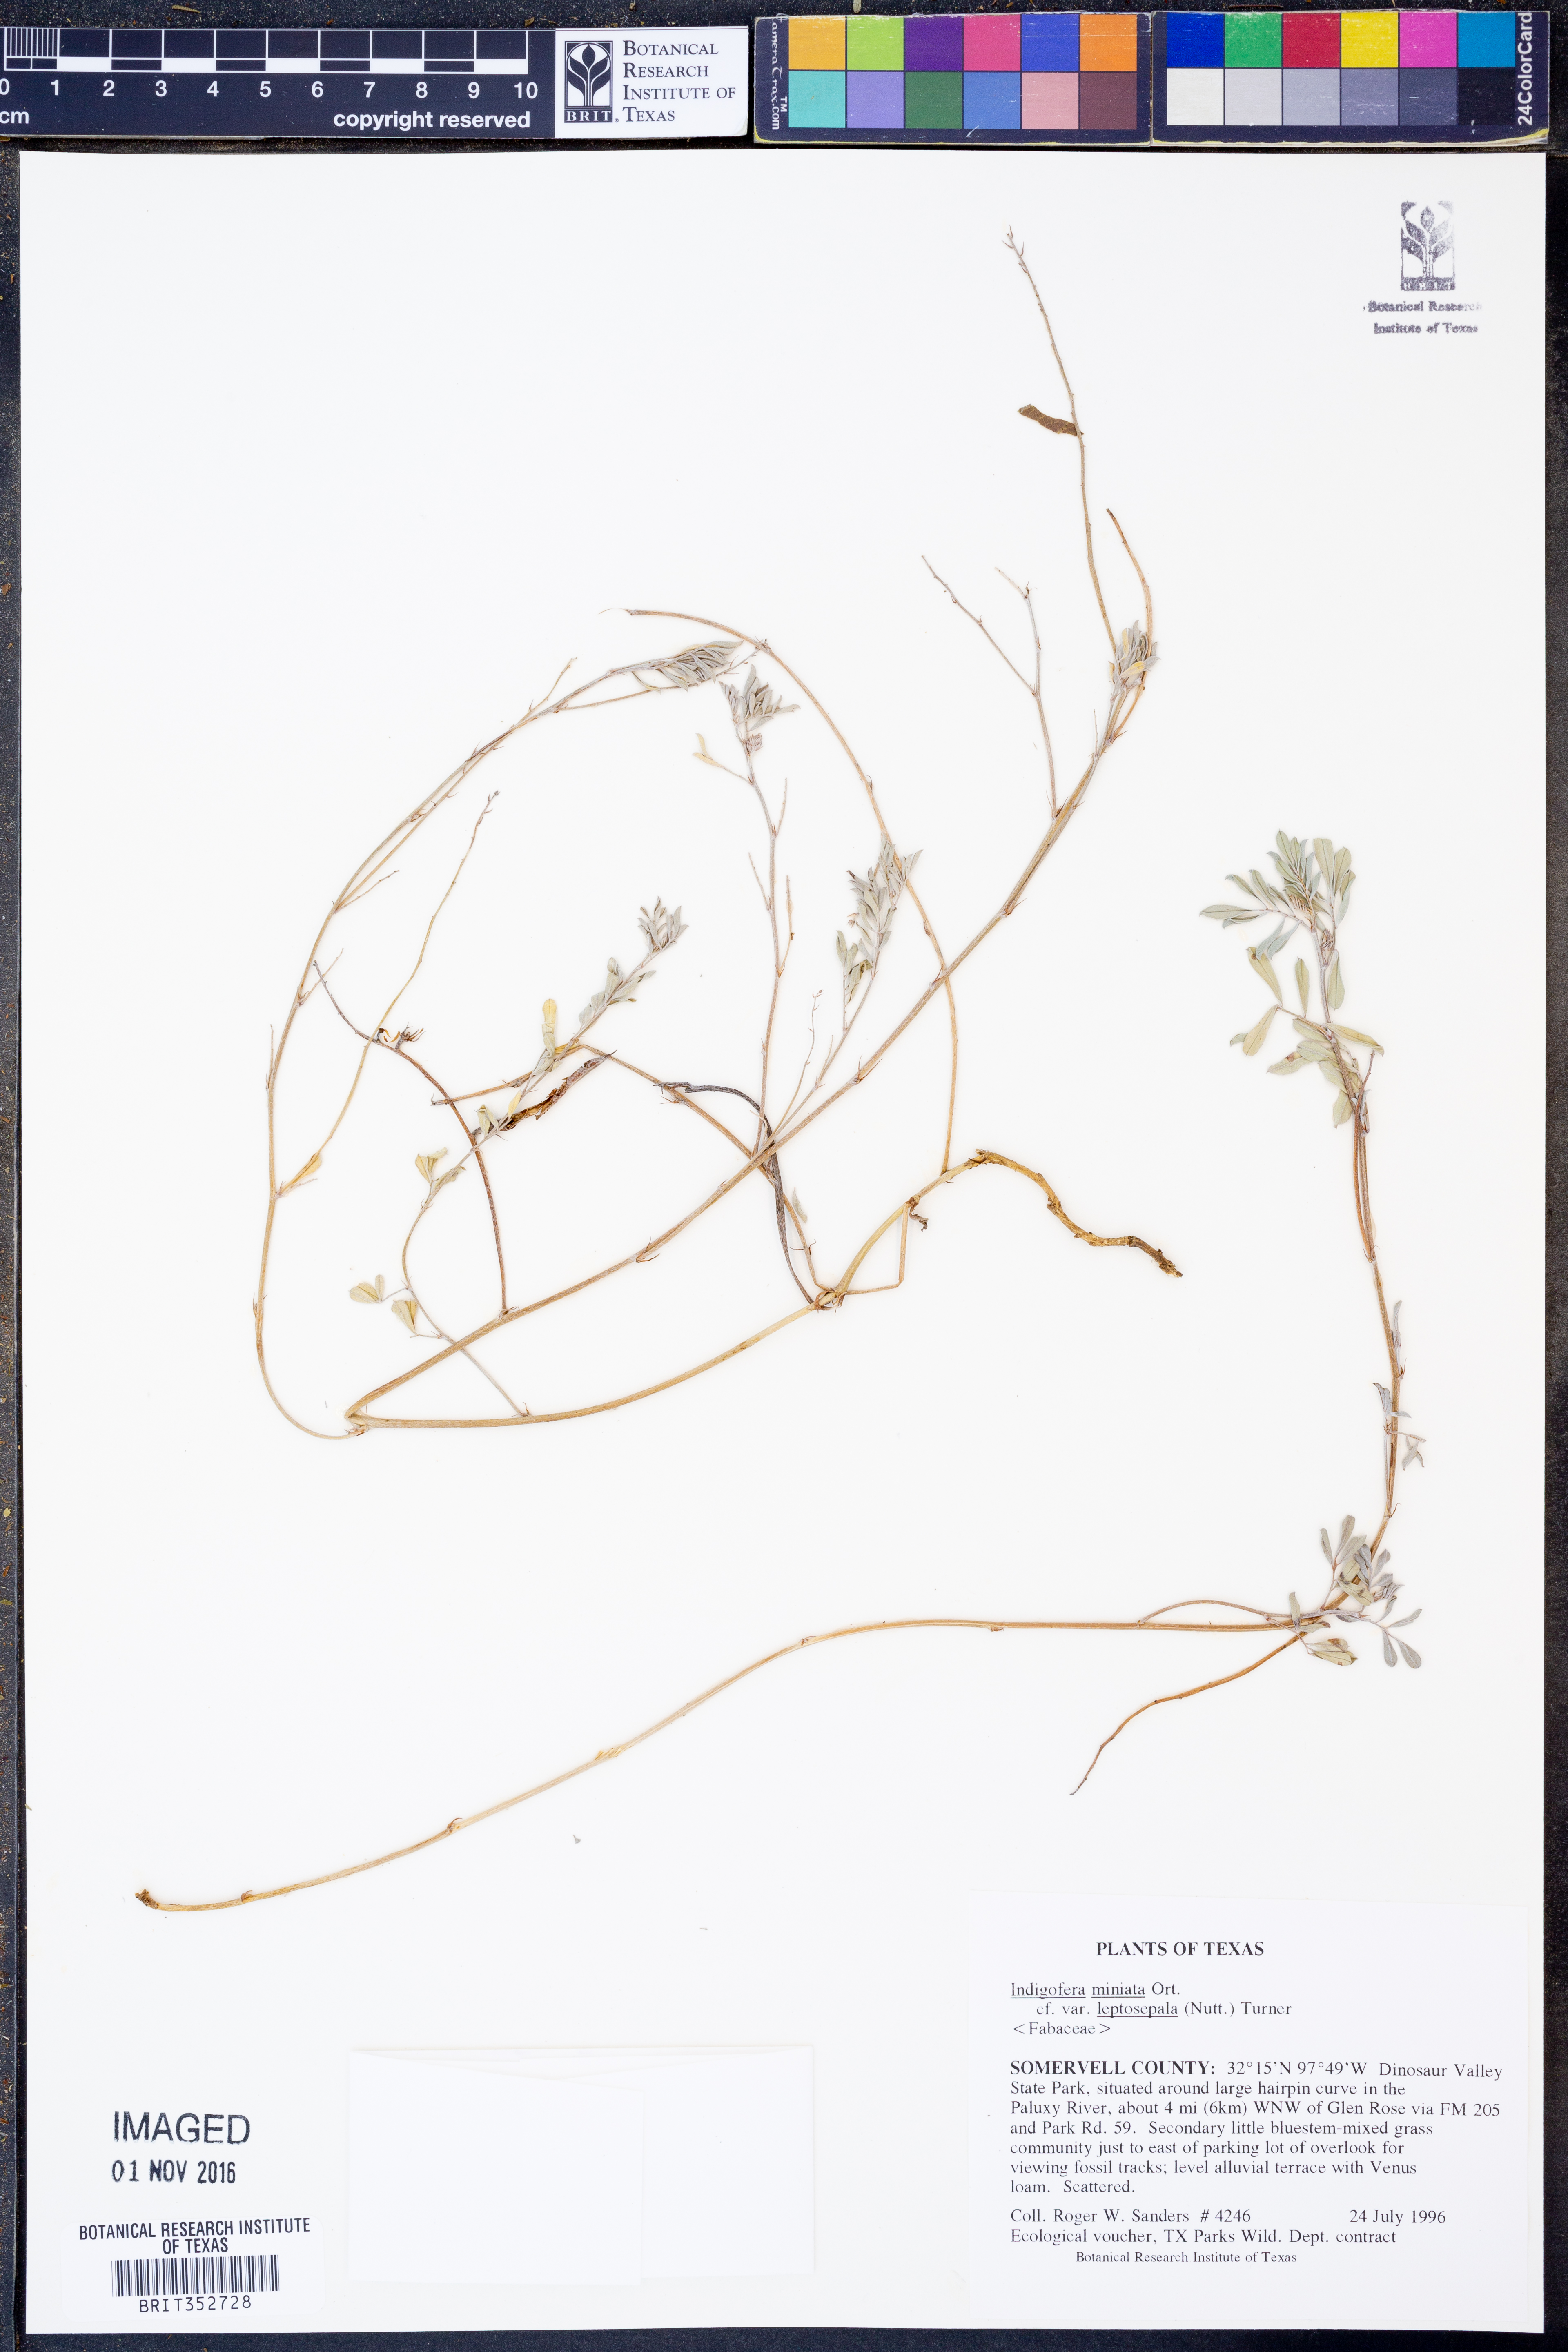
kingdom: Plantae
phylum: Tracheophyta
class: Magnoliopsida
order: Fabales
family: Fabaceae
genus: Indigofera
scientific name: Indigofera miniata
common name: Coast indigo
